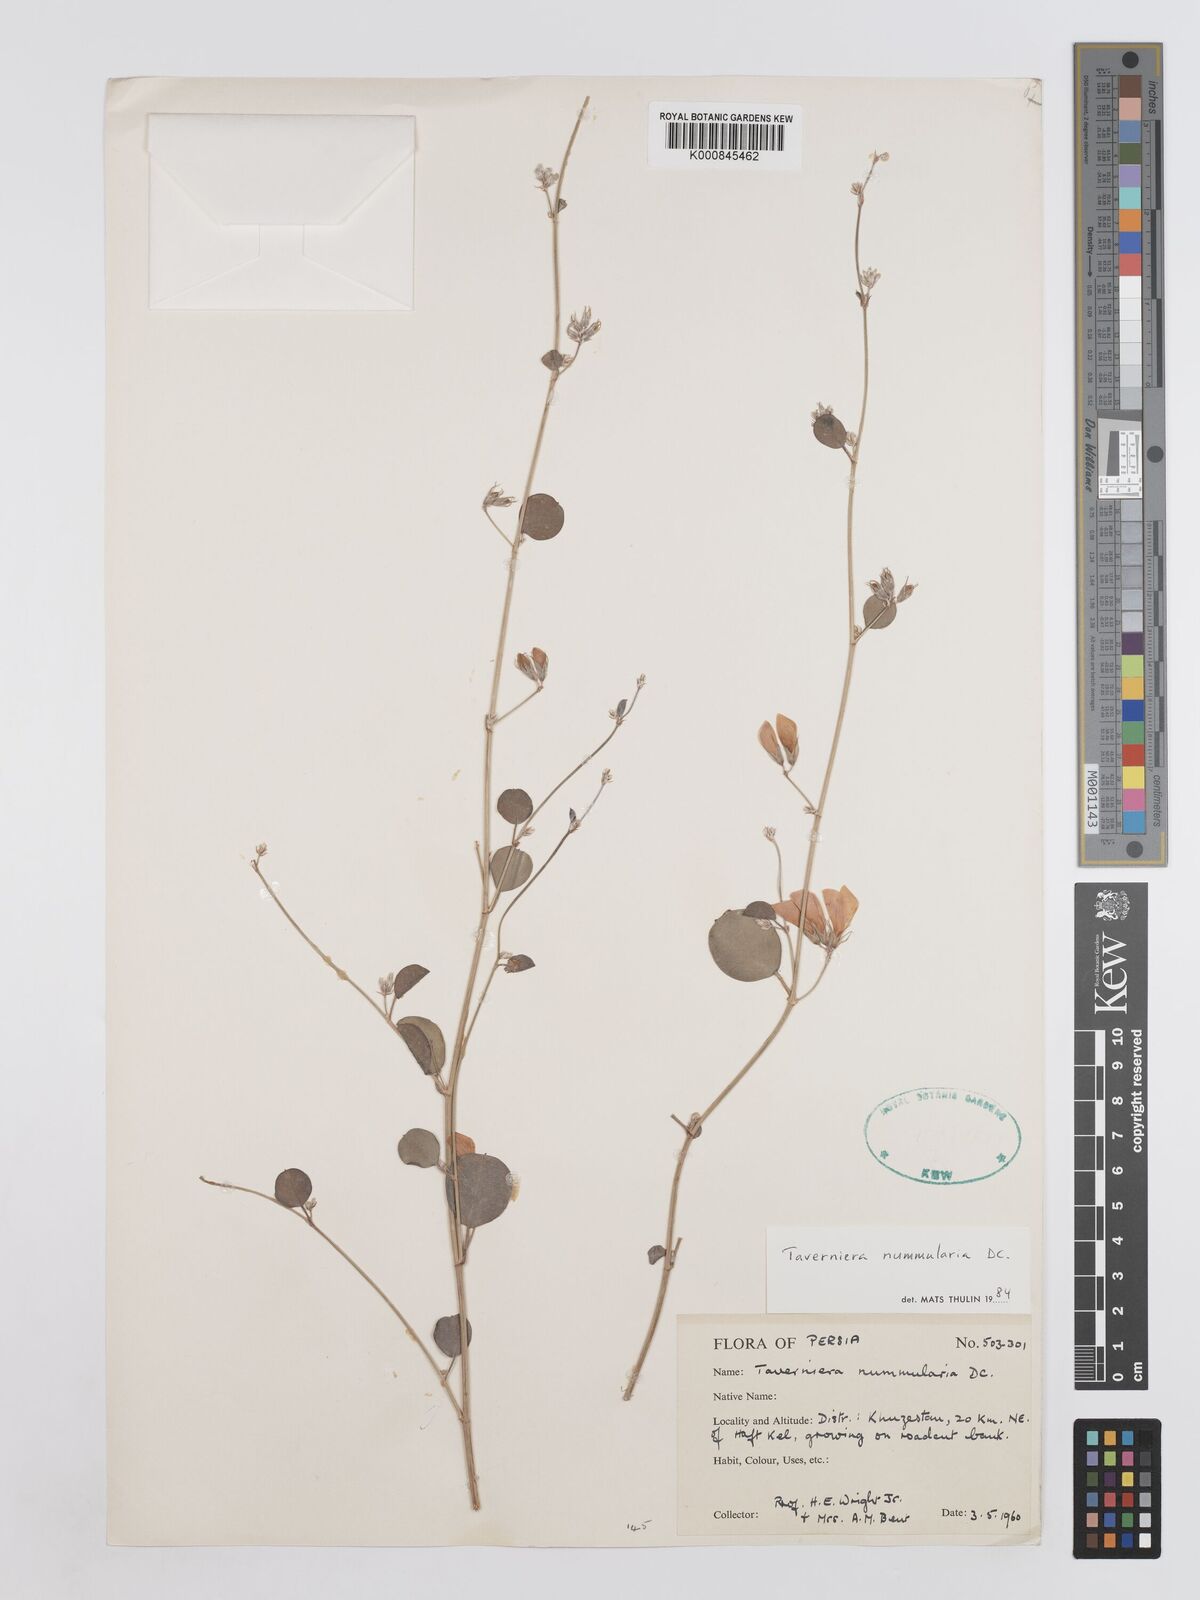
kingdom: Plantae
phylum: Tracheophyta
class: Magnoliopsida
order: Fabales
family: Fabaceae
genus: Taverniera
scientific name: Taverniera nummularia
